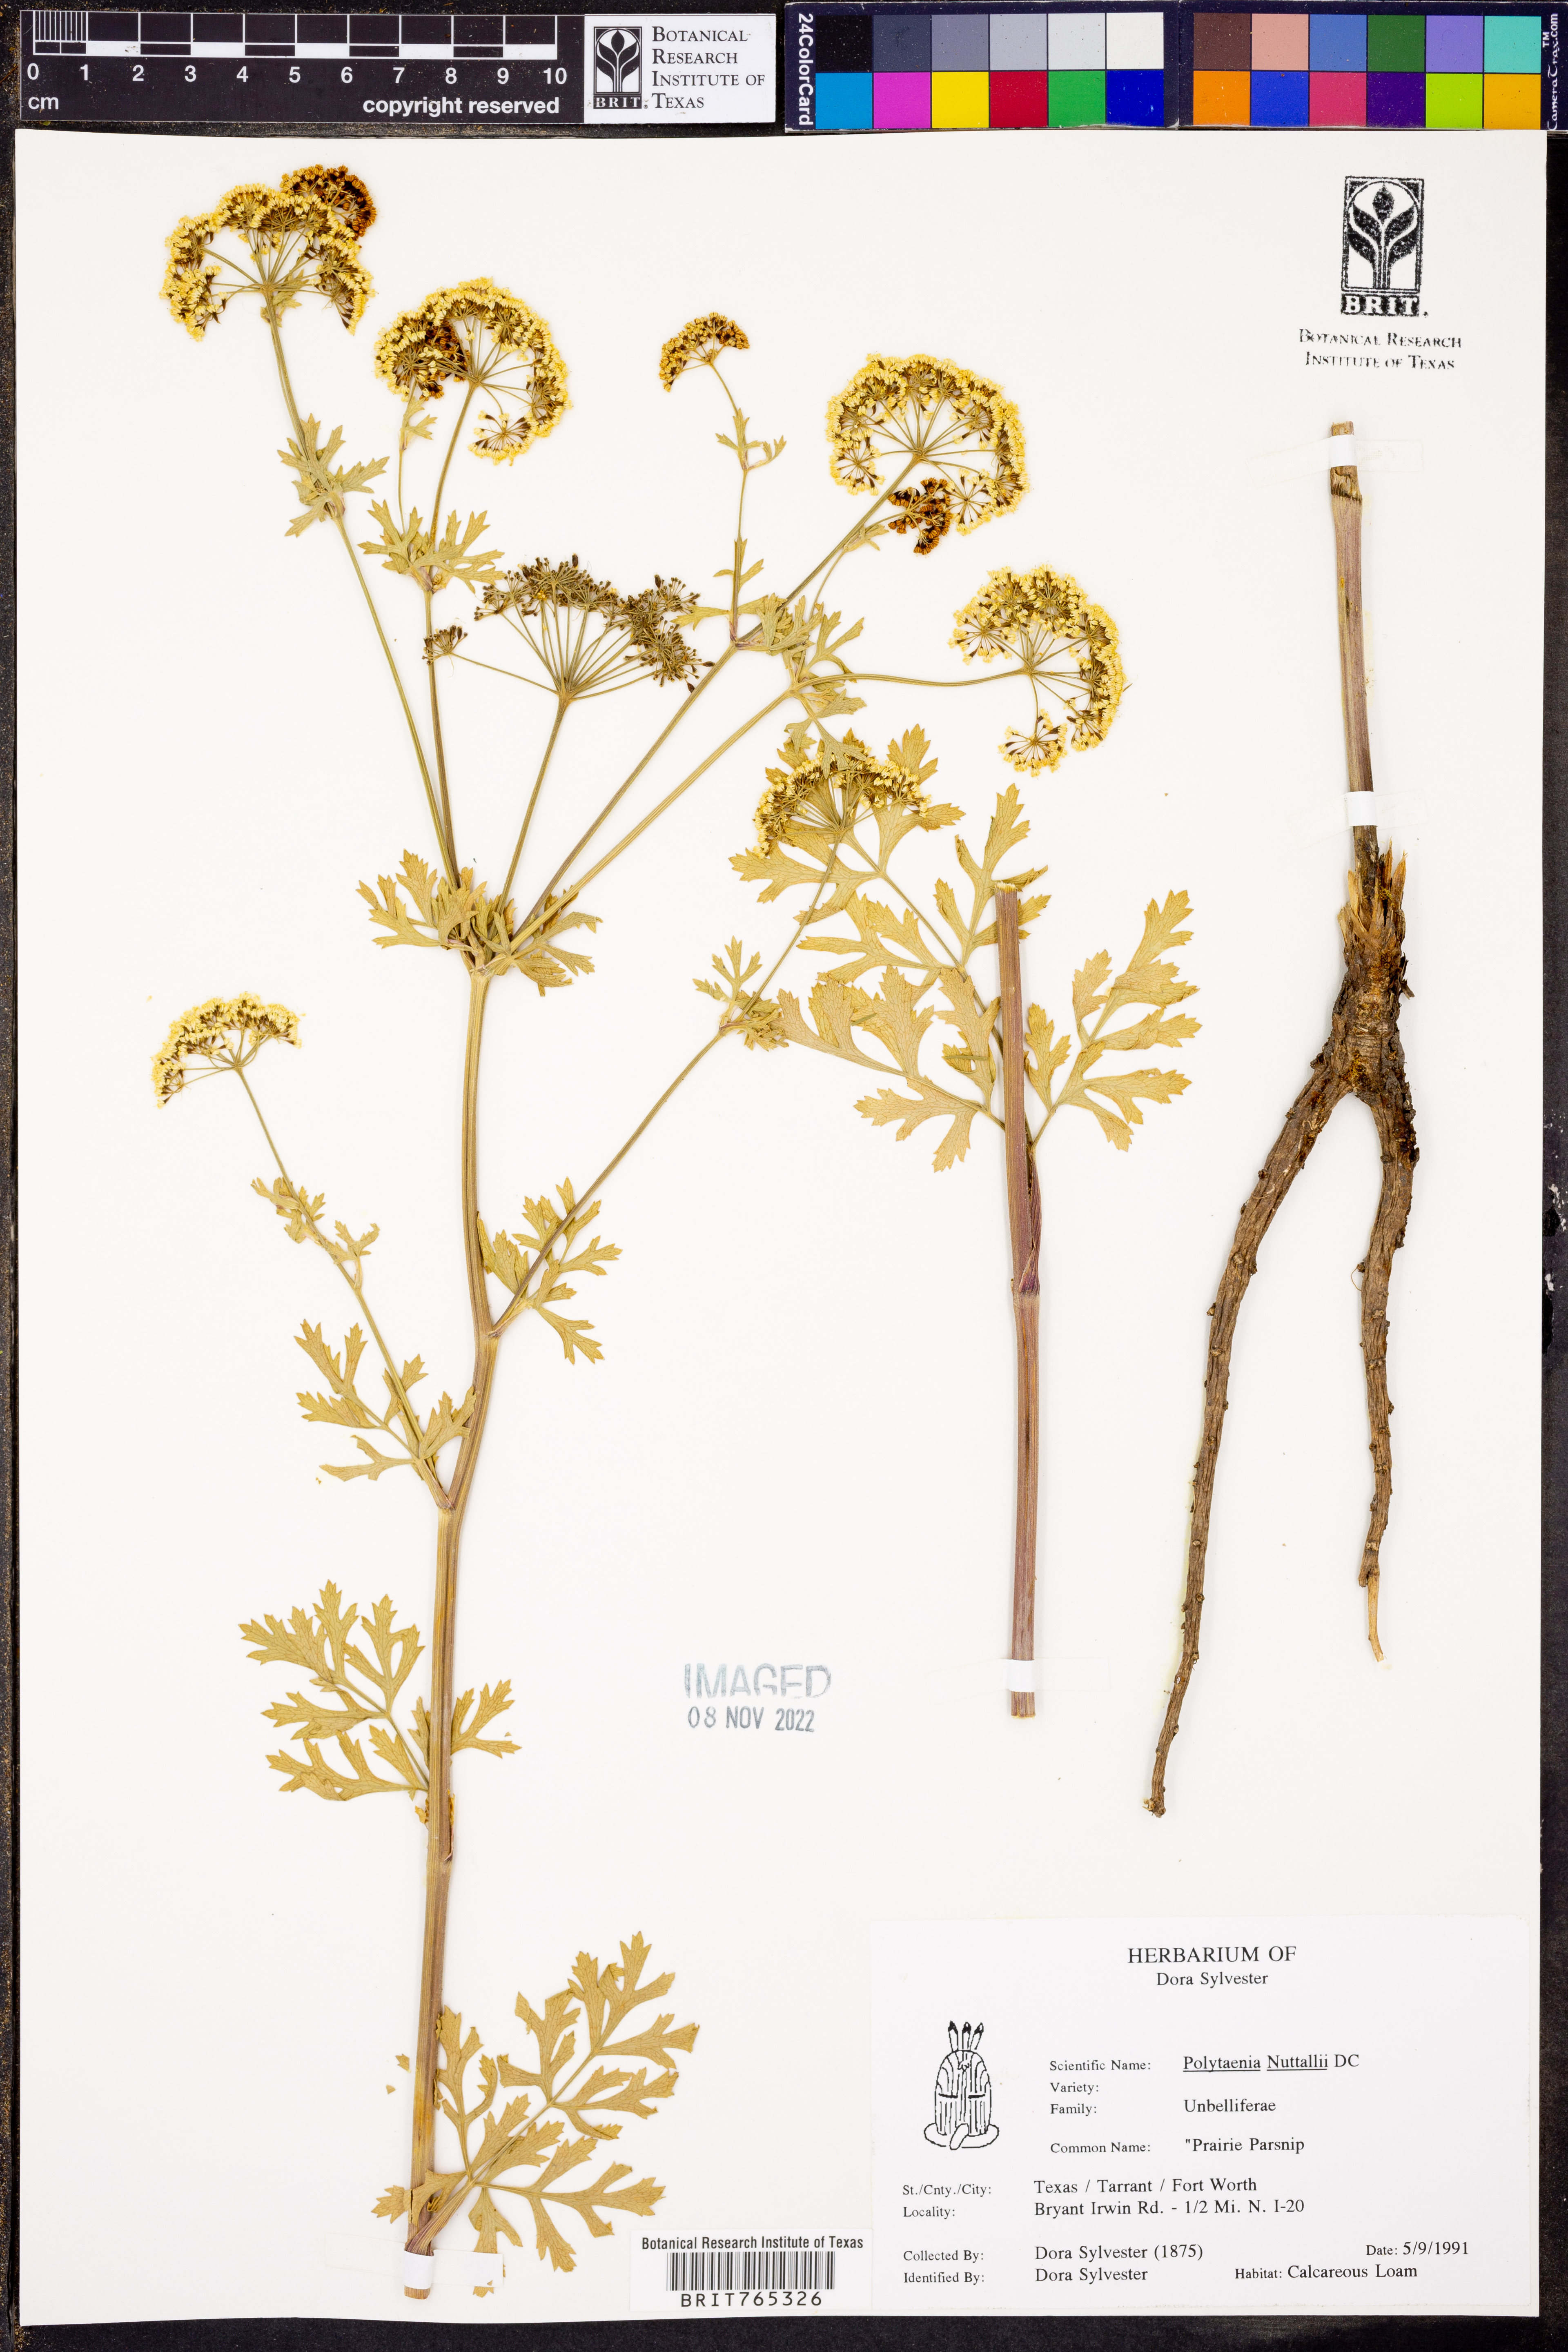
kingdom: Plantae
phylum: Tracheophyta
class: Magnoliopsida
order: Apiales
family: Apiaceae
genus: Polytaenia
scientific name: Polytaenia nuttallii
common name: Prairie-parsley
